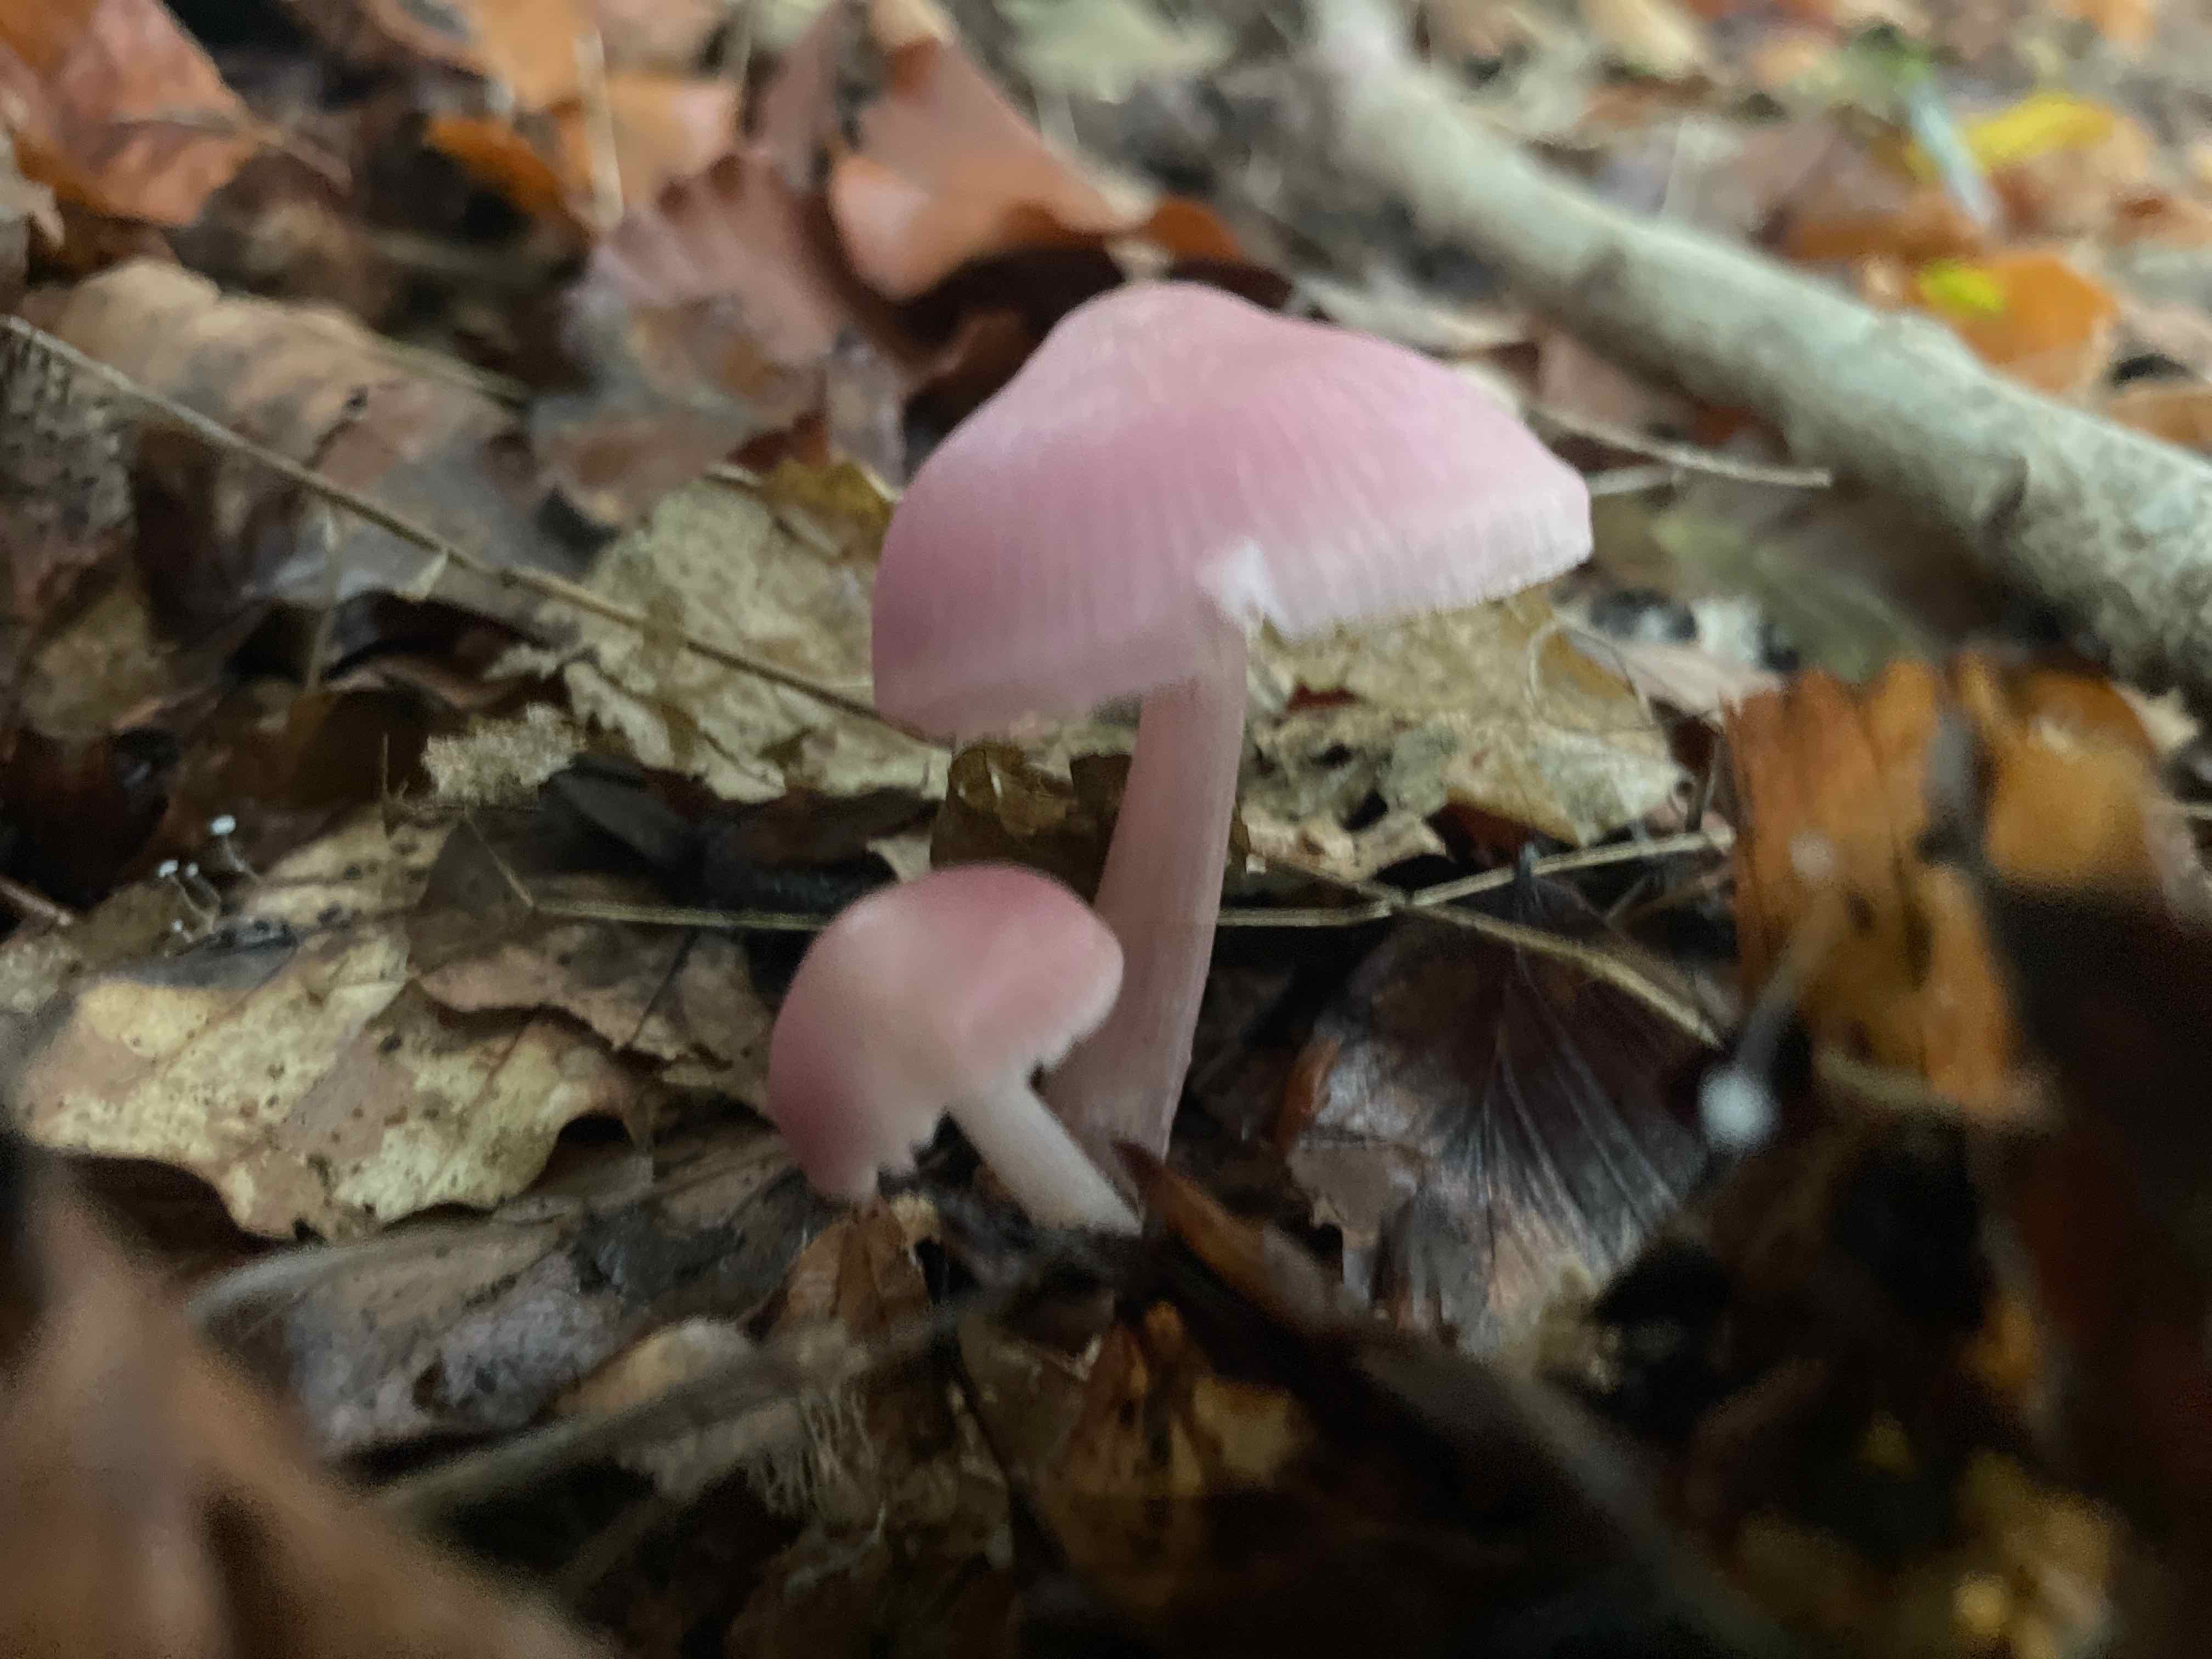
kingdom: Fungi
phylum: Basidiomycota
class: Agaricomycetes
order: Agaricales
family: Mycenaceae
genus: Mycena
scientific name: Mycena rosea
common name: rosa huesvamp
